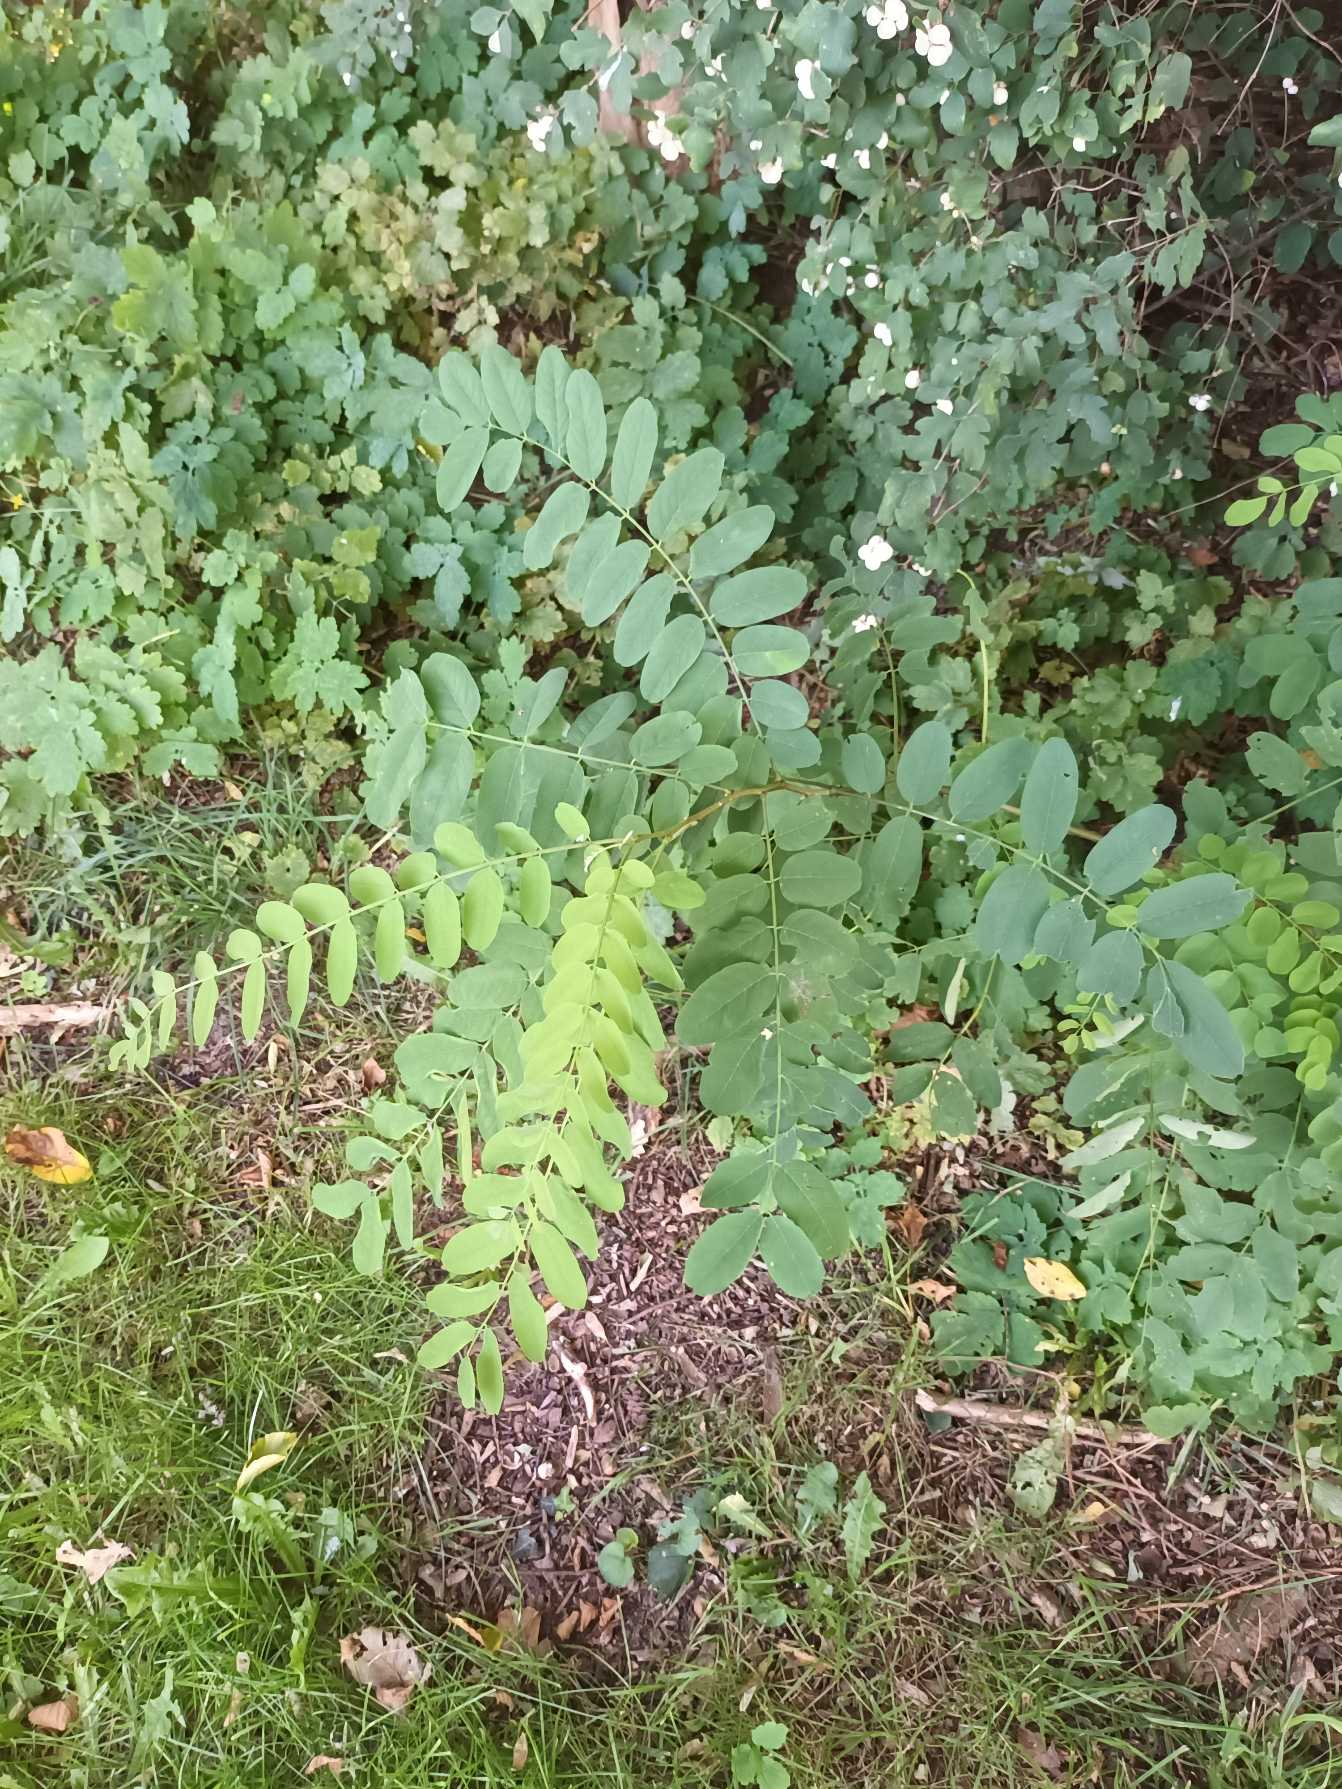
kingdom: Plantae
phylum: Tracheophyta
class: Magnoliopsida
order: Fabales
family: Fabaceae
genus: Robinia
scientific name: Robinia pseudoacacia
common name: Robinie
